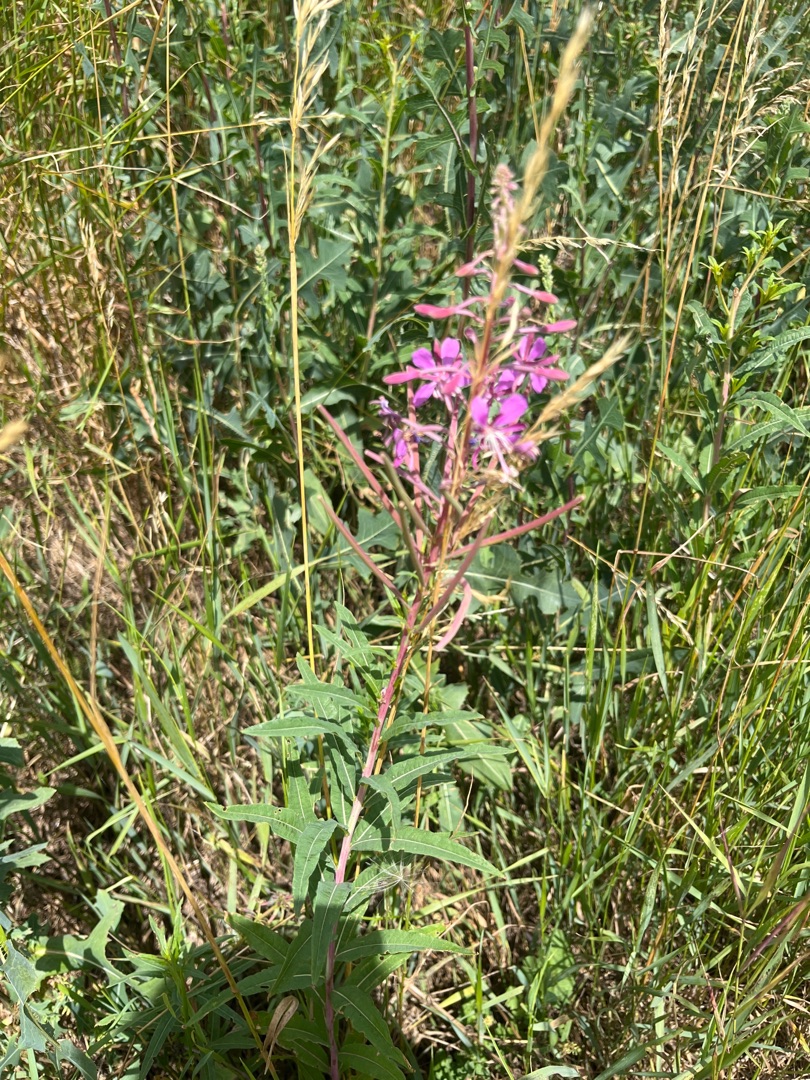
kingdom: Plantae
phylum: Tracheophyta
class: Magnoliopsida
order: Myrtales
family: Onagraceae
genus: Chamaenerion
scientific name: Chamaenerion angustifolium
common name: Gederams
